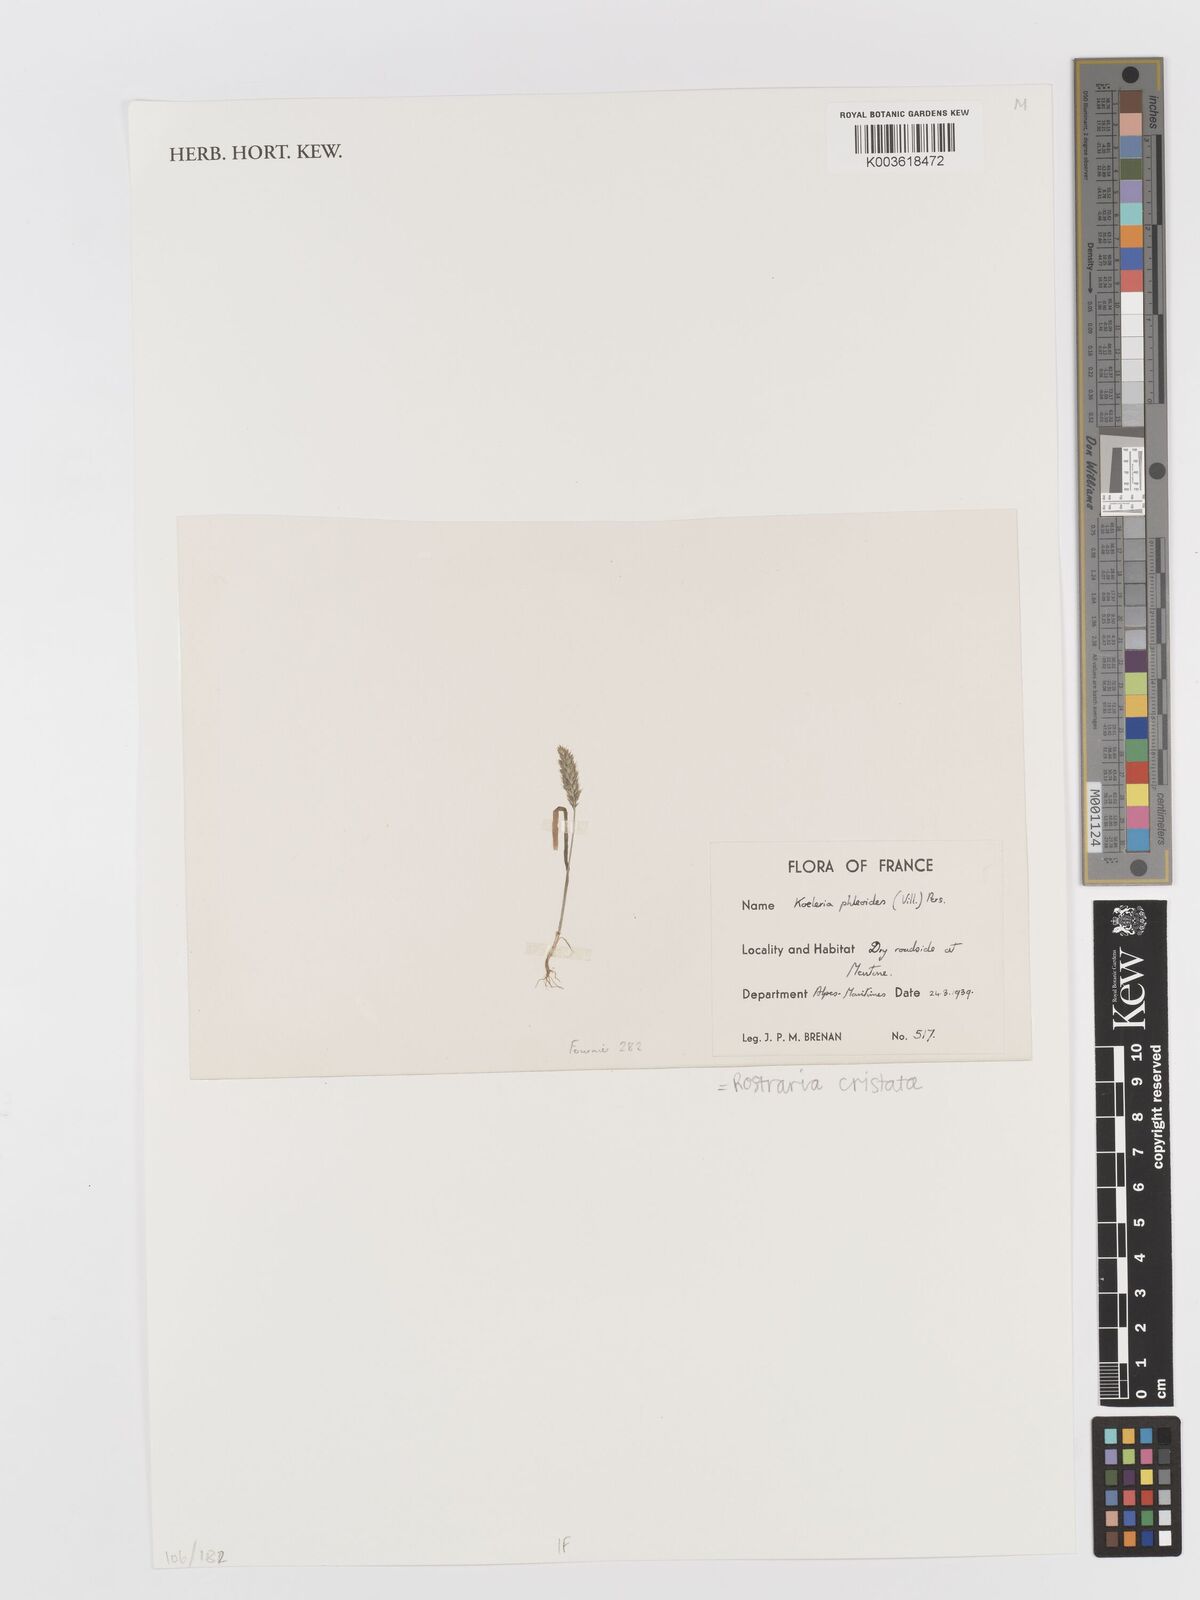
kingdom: Plantae
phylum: Tracheophyta
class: Liliopsida
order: Poales
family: Poaceae
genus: Rostraria
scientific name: Rostraria cristata
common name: Mediterranean hair-grass
